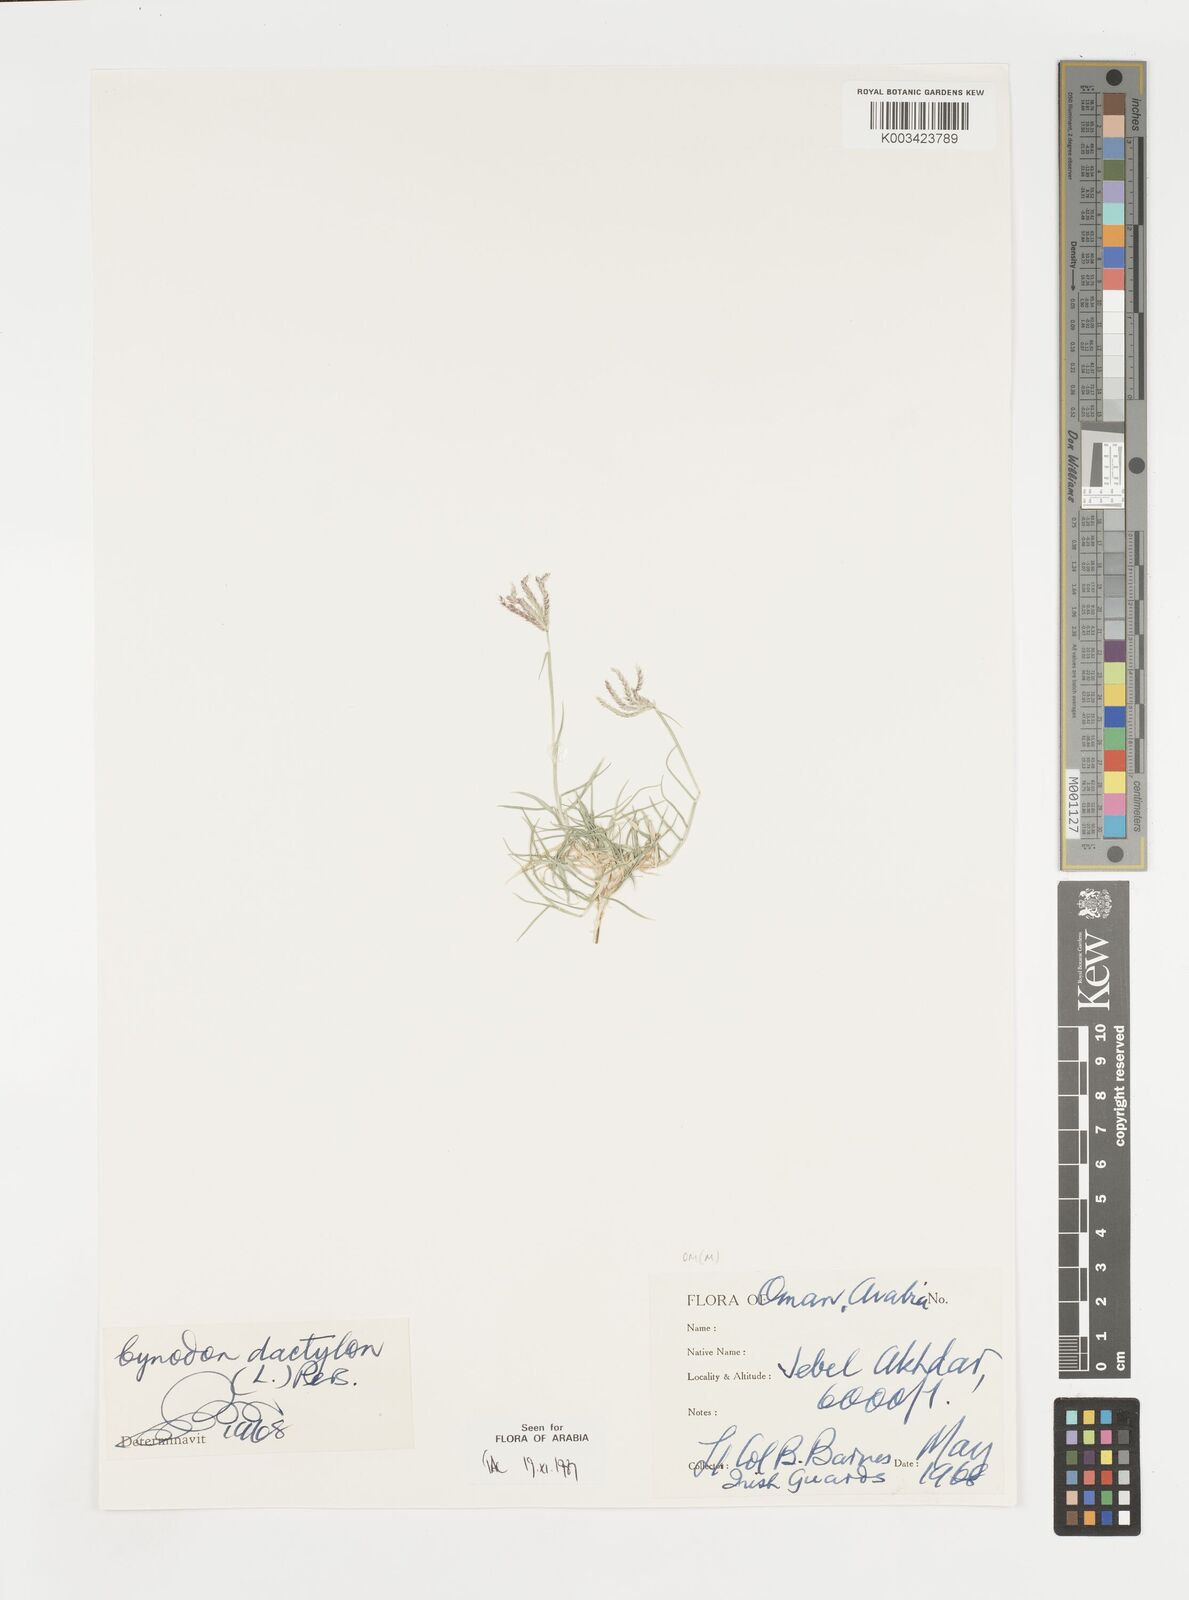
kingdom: Plantae
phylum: Tracheophyta
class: Liliopsida
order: Poales
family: Poaceae
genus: Cynodon
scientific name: Cynodon dactylon
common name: Bermuda grass
